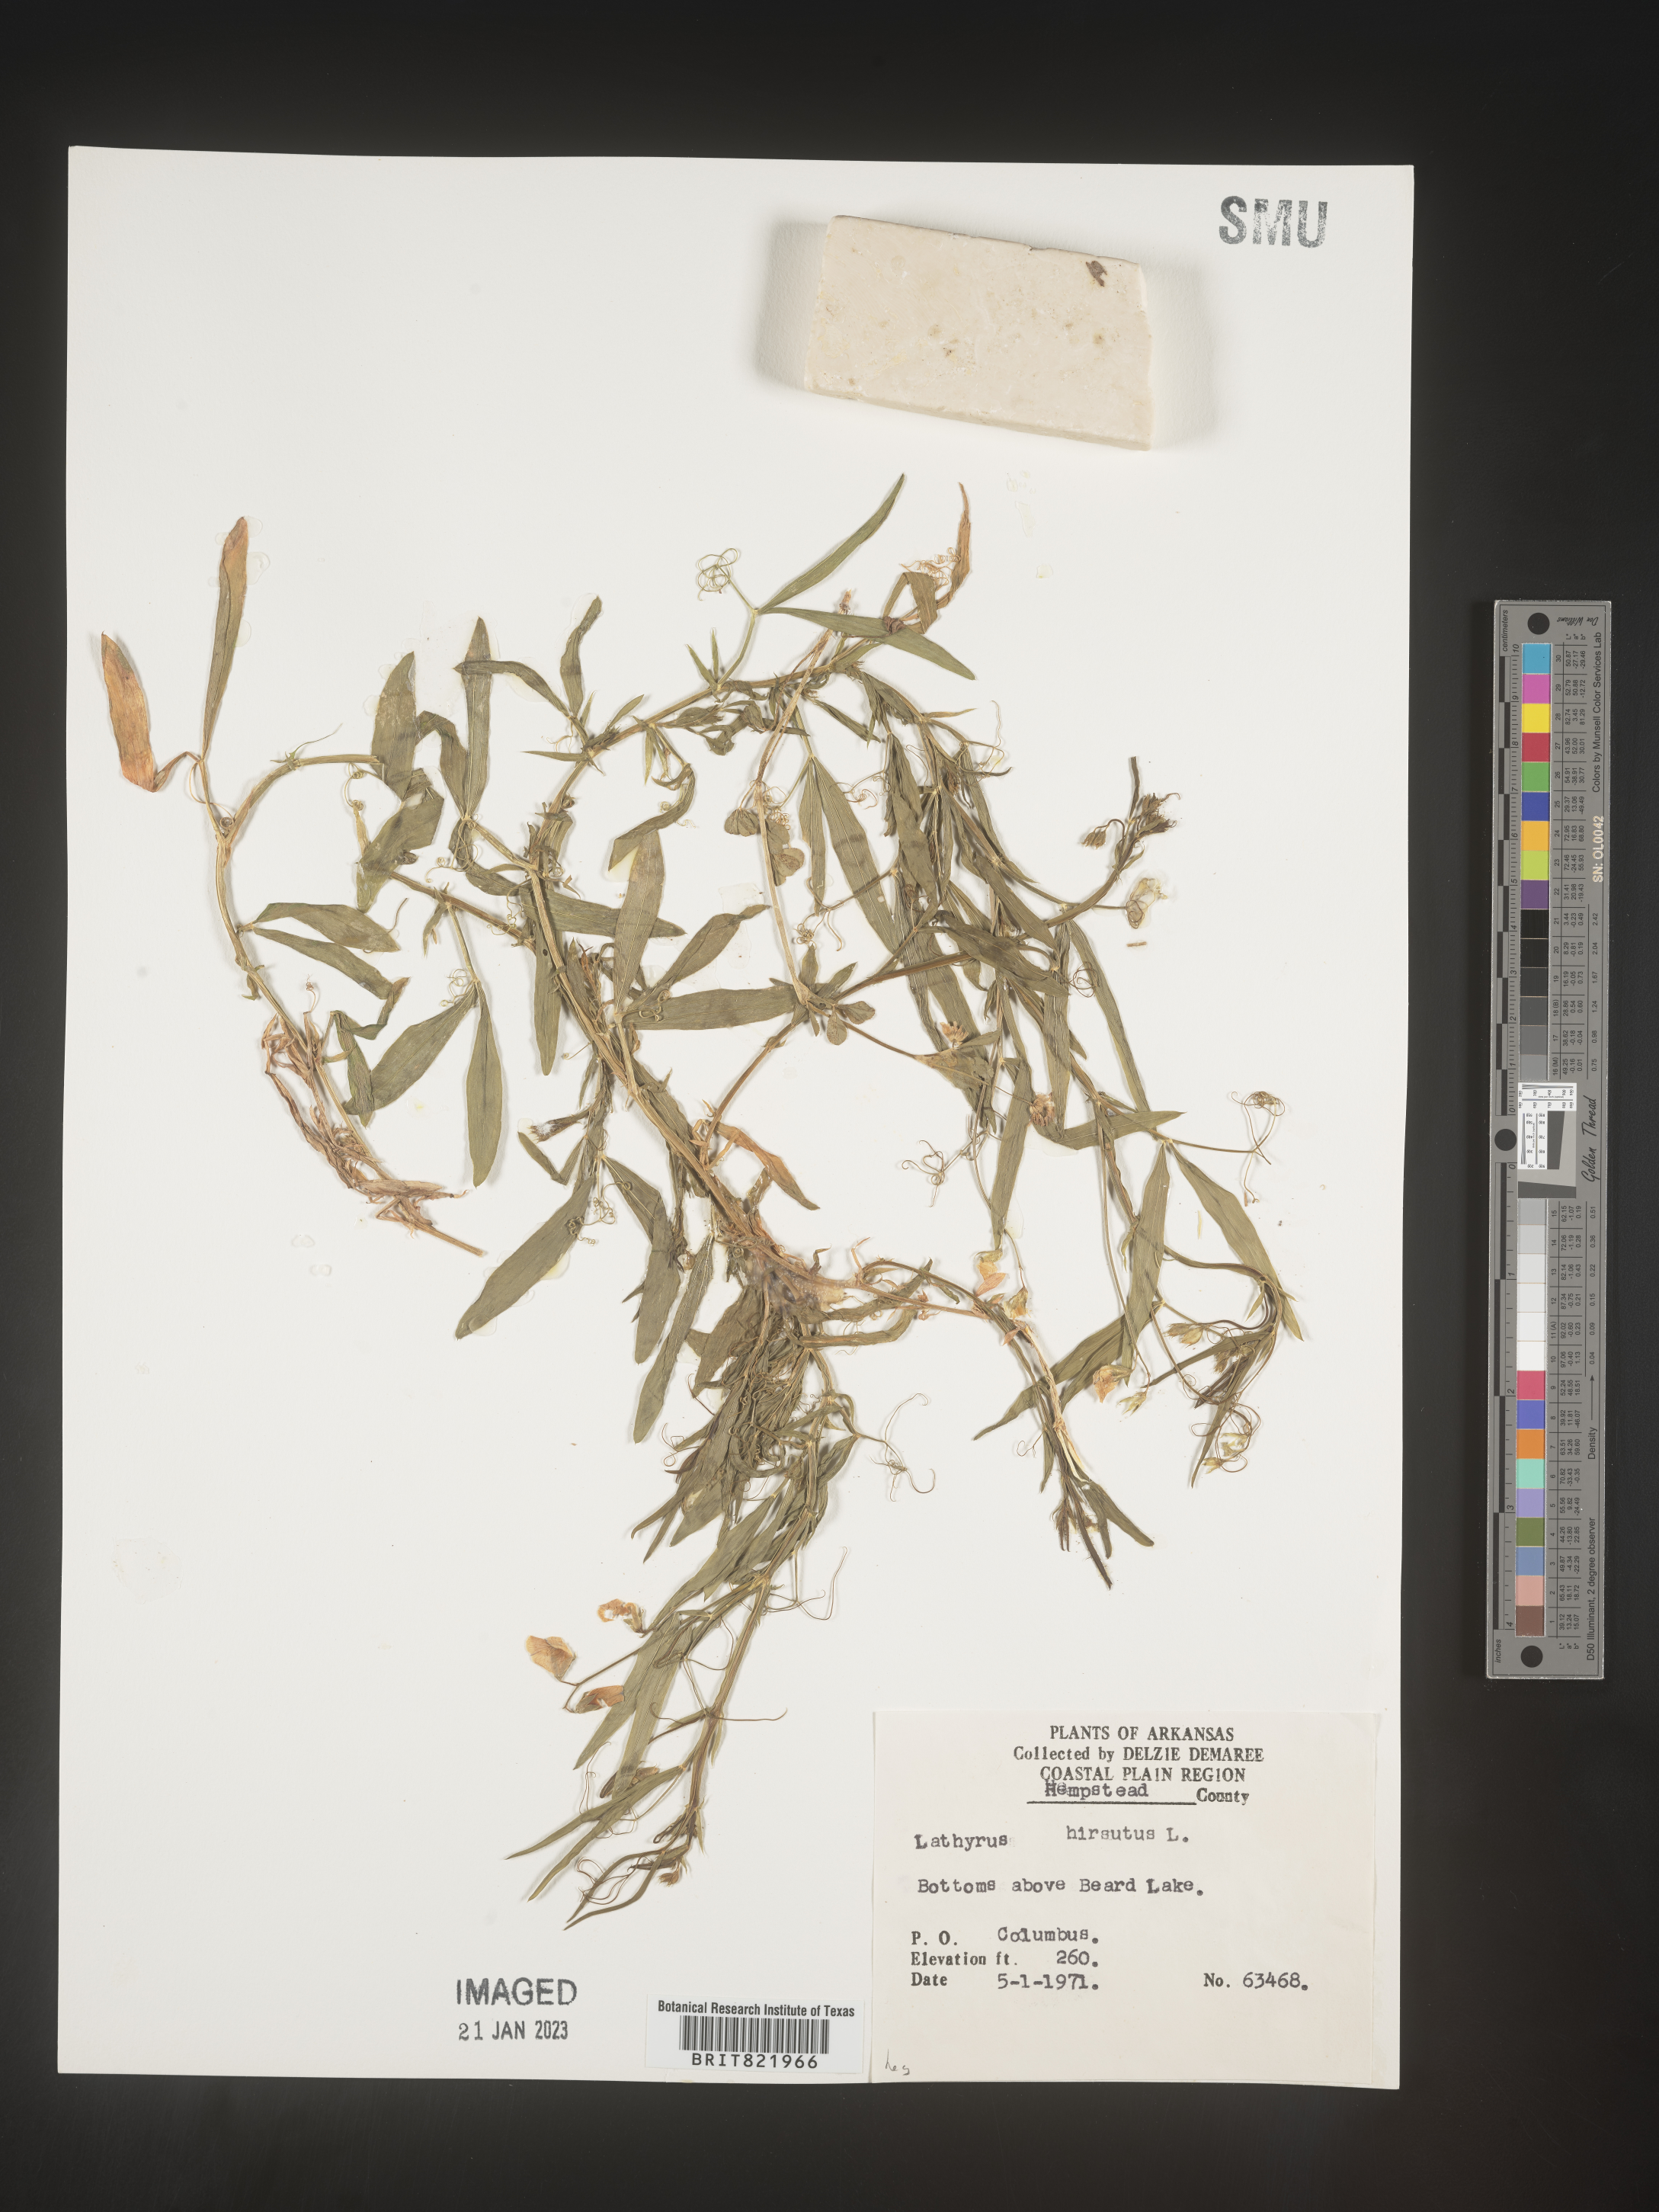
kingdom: Plantae
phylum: Tracheophyta
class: Magnoliopsida
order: Fabales
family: Fabaceae
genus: Lathyrus
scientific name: Lathyrus hirsutus
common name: Hairy vetchling
